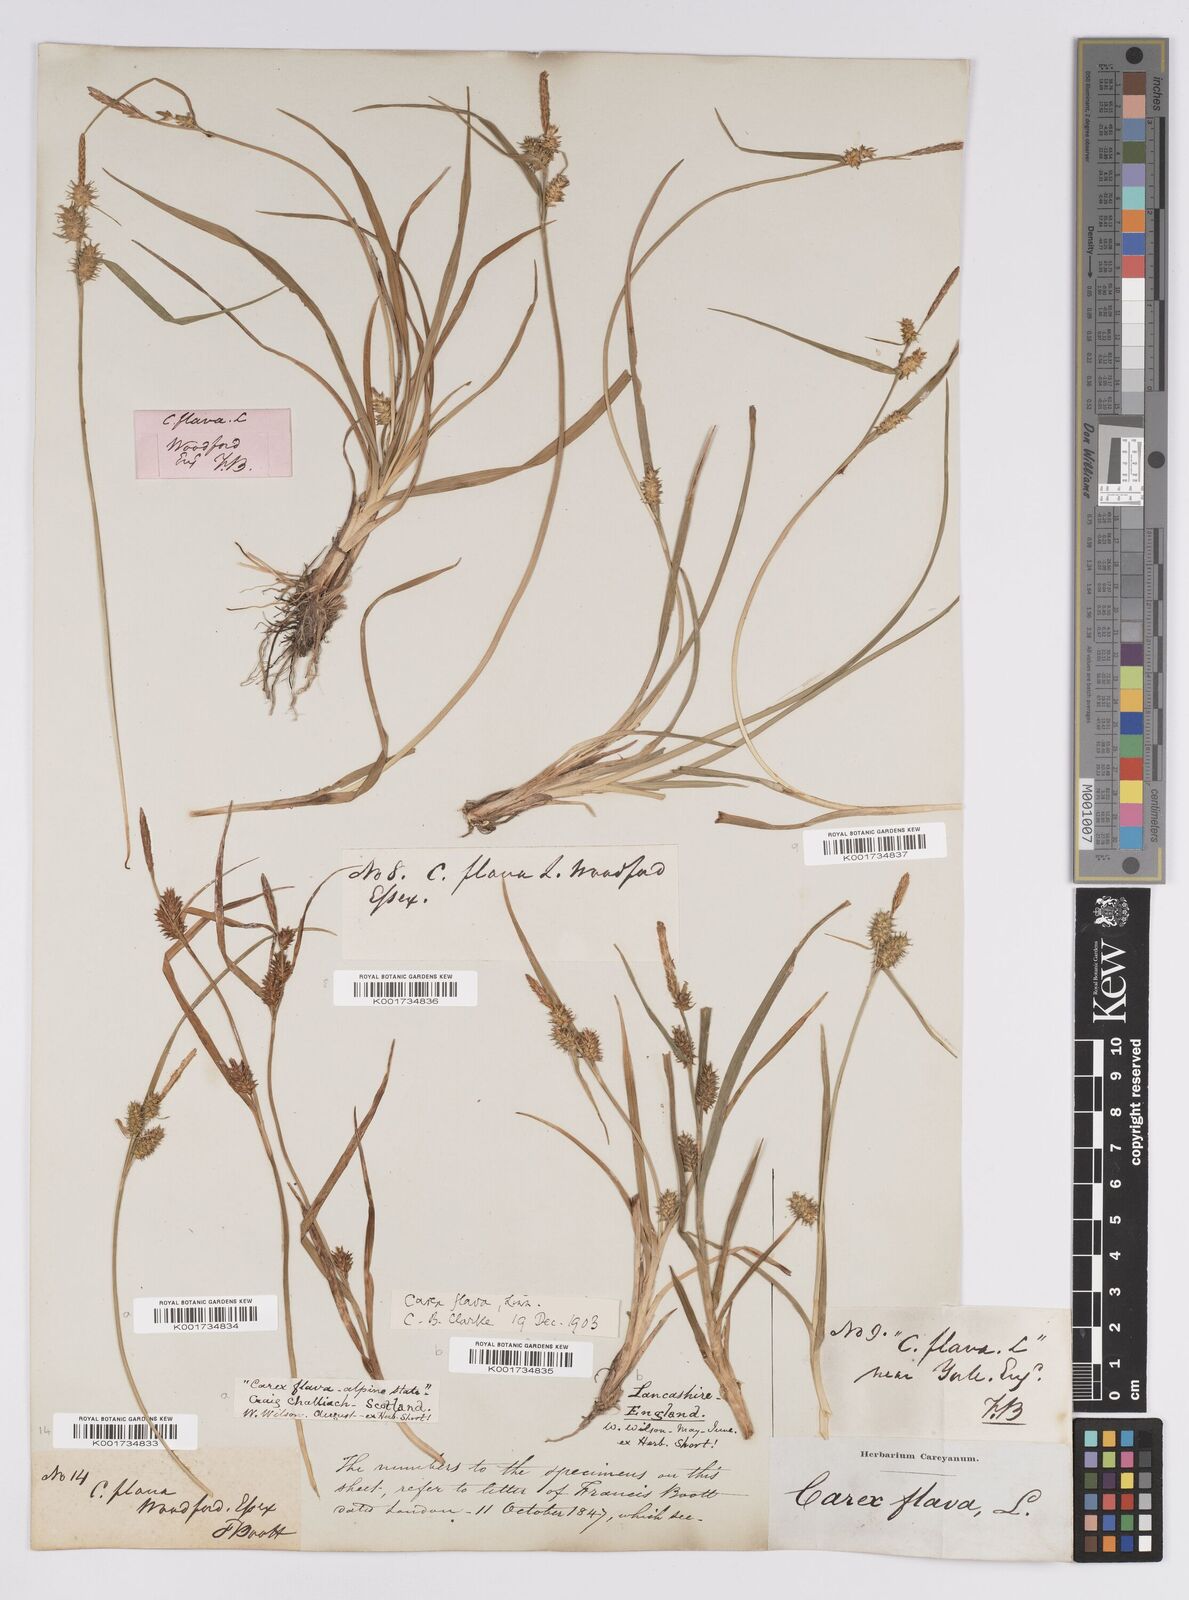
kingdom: Plantae
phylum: Tracheophyta
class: Liliopsida
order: Poales
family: Cyperaceae
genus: Carex
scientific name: Carex flava
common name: Large yellow-sedge
